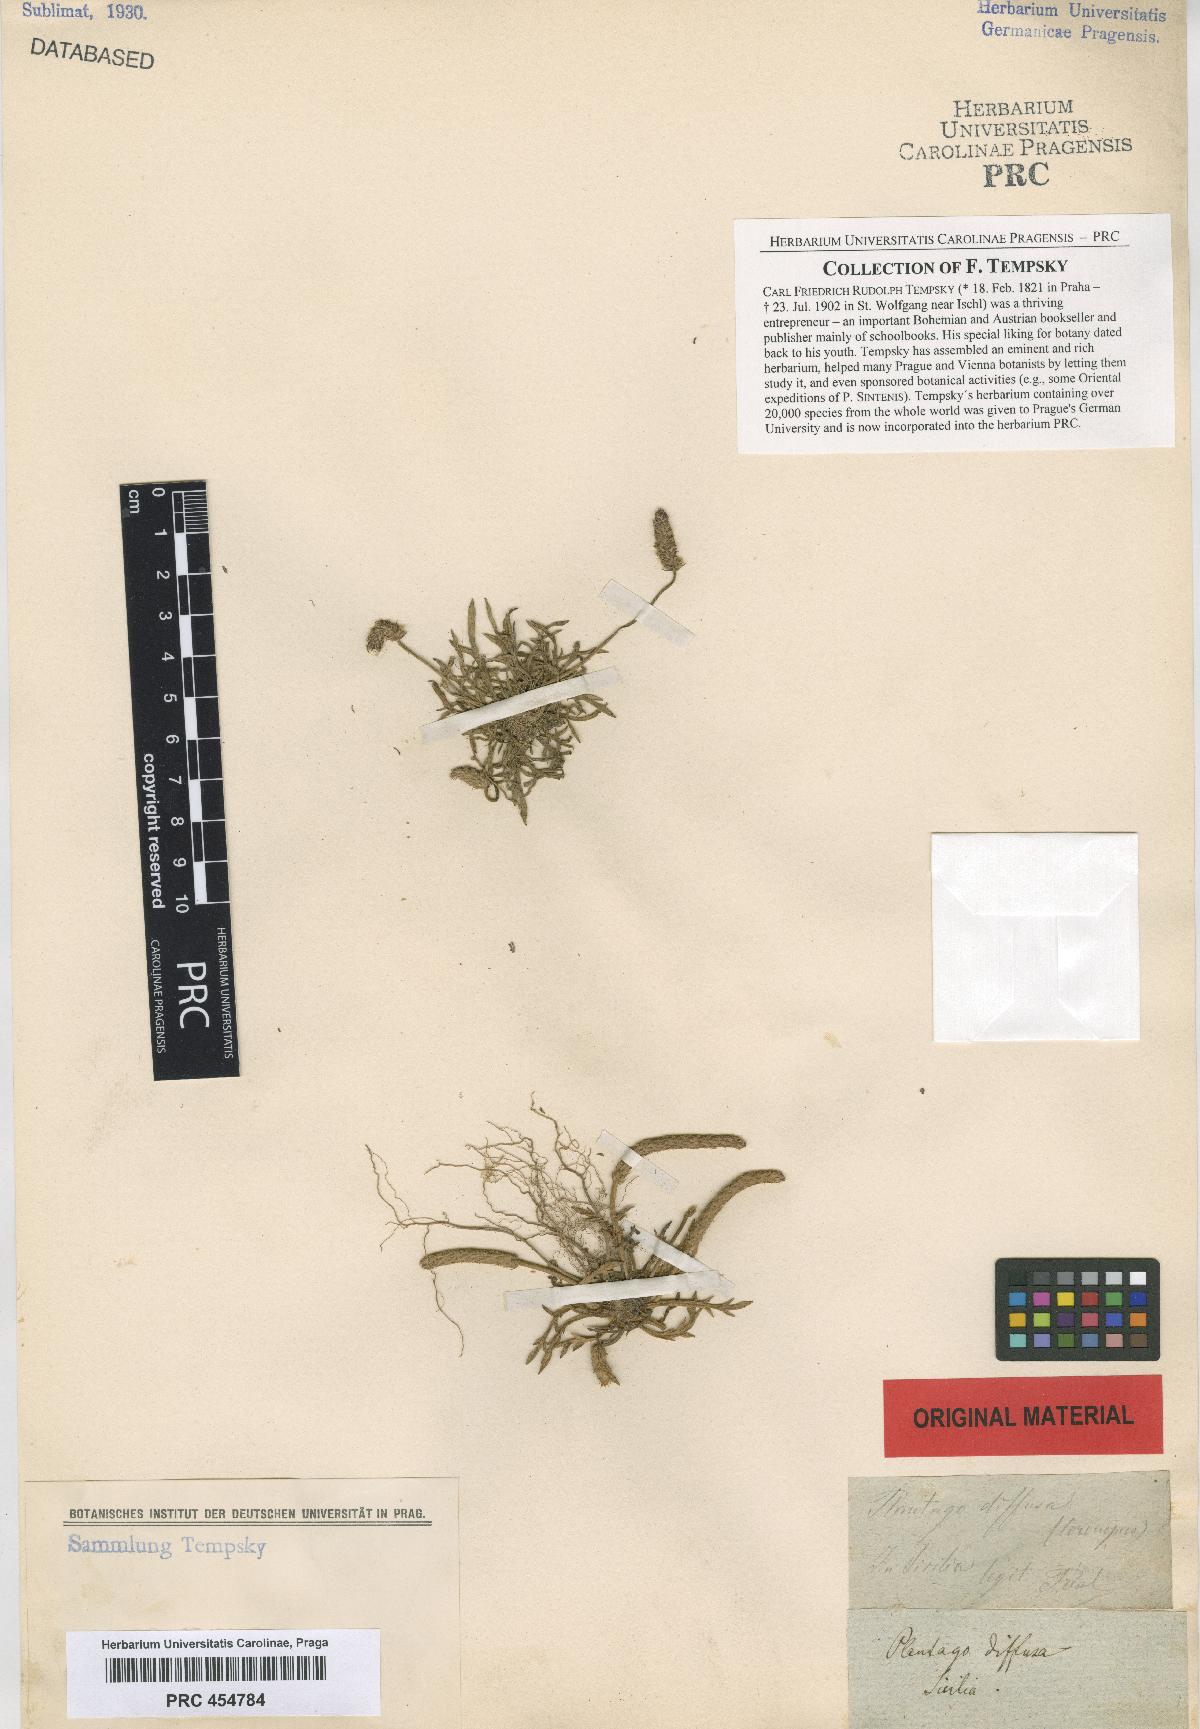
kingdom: Plantae
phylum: Tracheophyta
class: Magnoliopsida
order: Lamiales
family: Plantaginaceae
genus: Plantago
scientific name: Plantago diffusa
